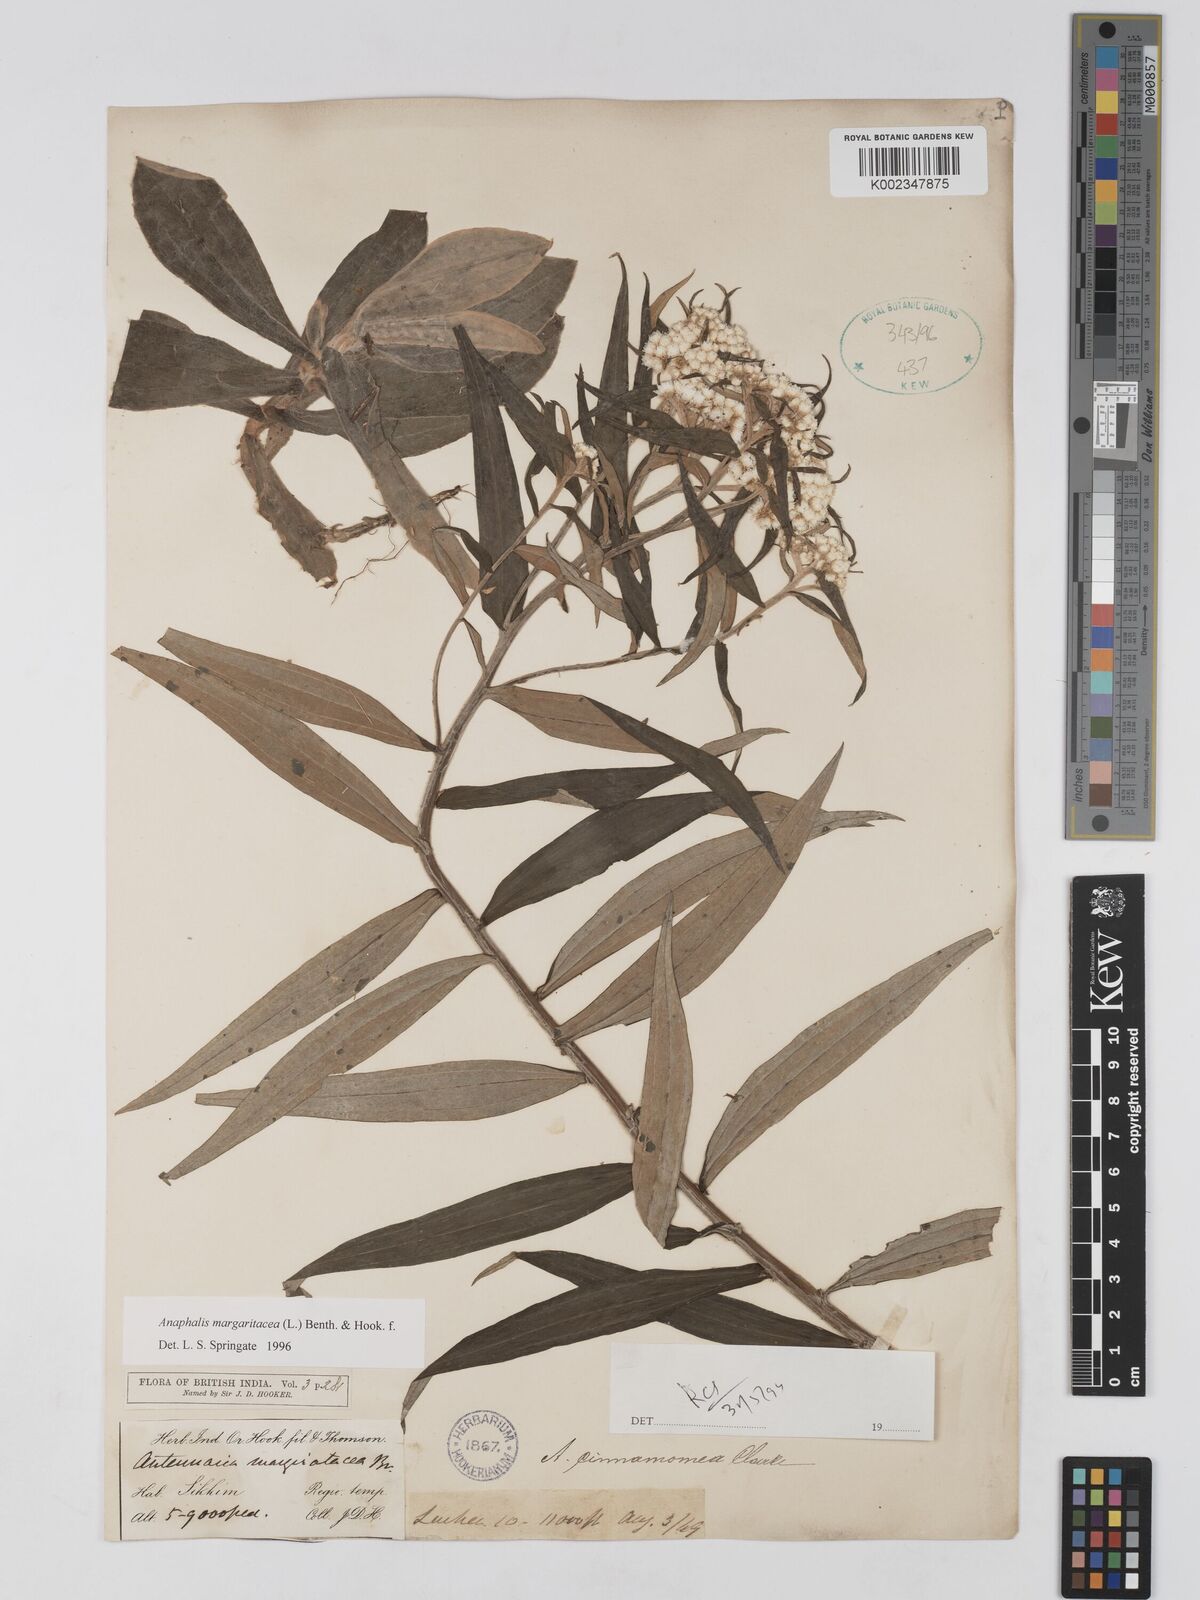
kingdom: Plantae
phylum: Tracheophyta
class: Magnoliopsida
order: Asterales
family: Asteraceae
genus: Anaphalis
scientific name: Anaphalis margaritacea
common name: Pearly everlasting
